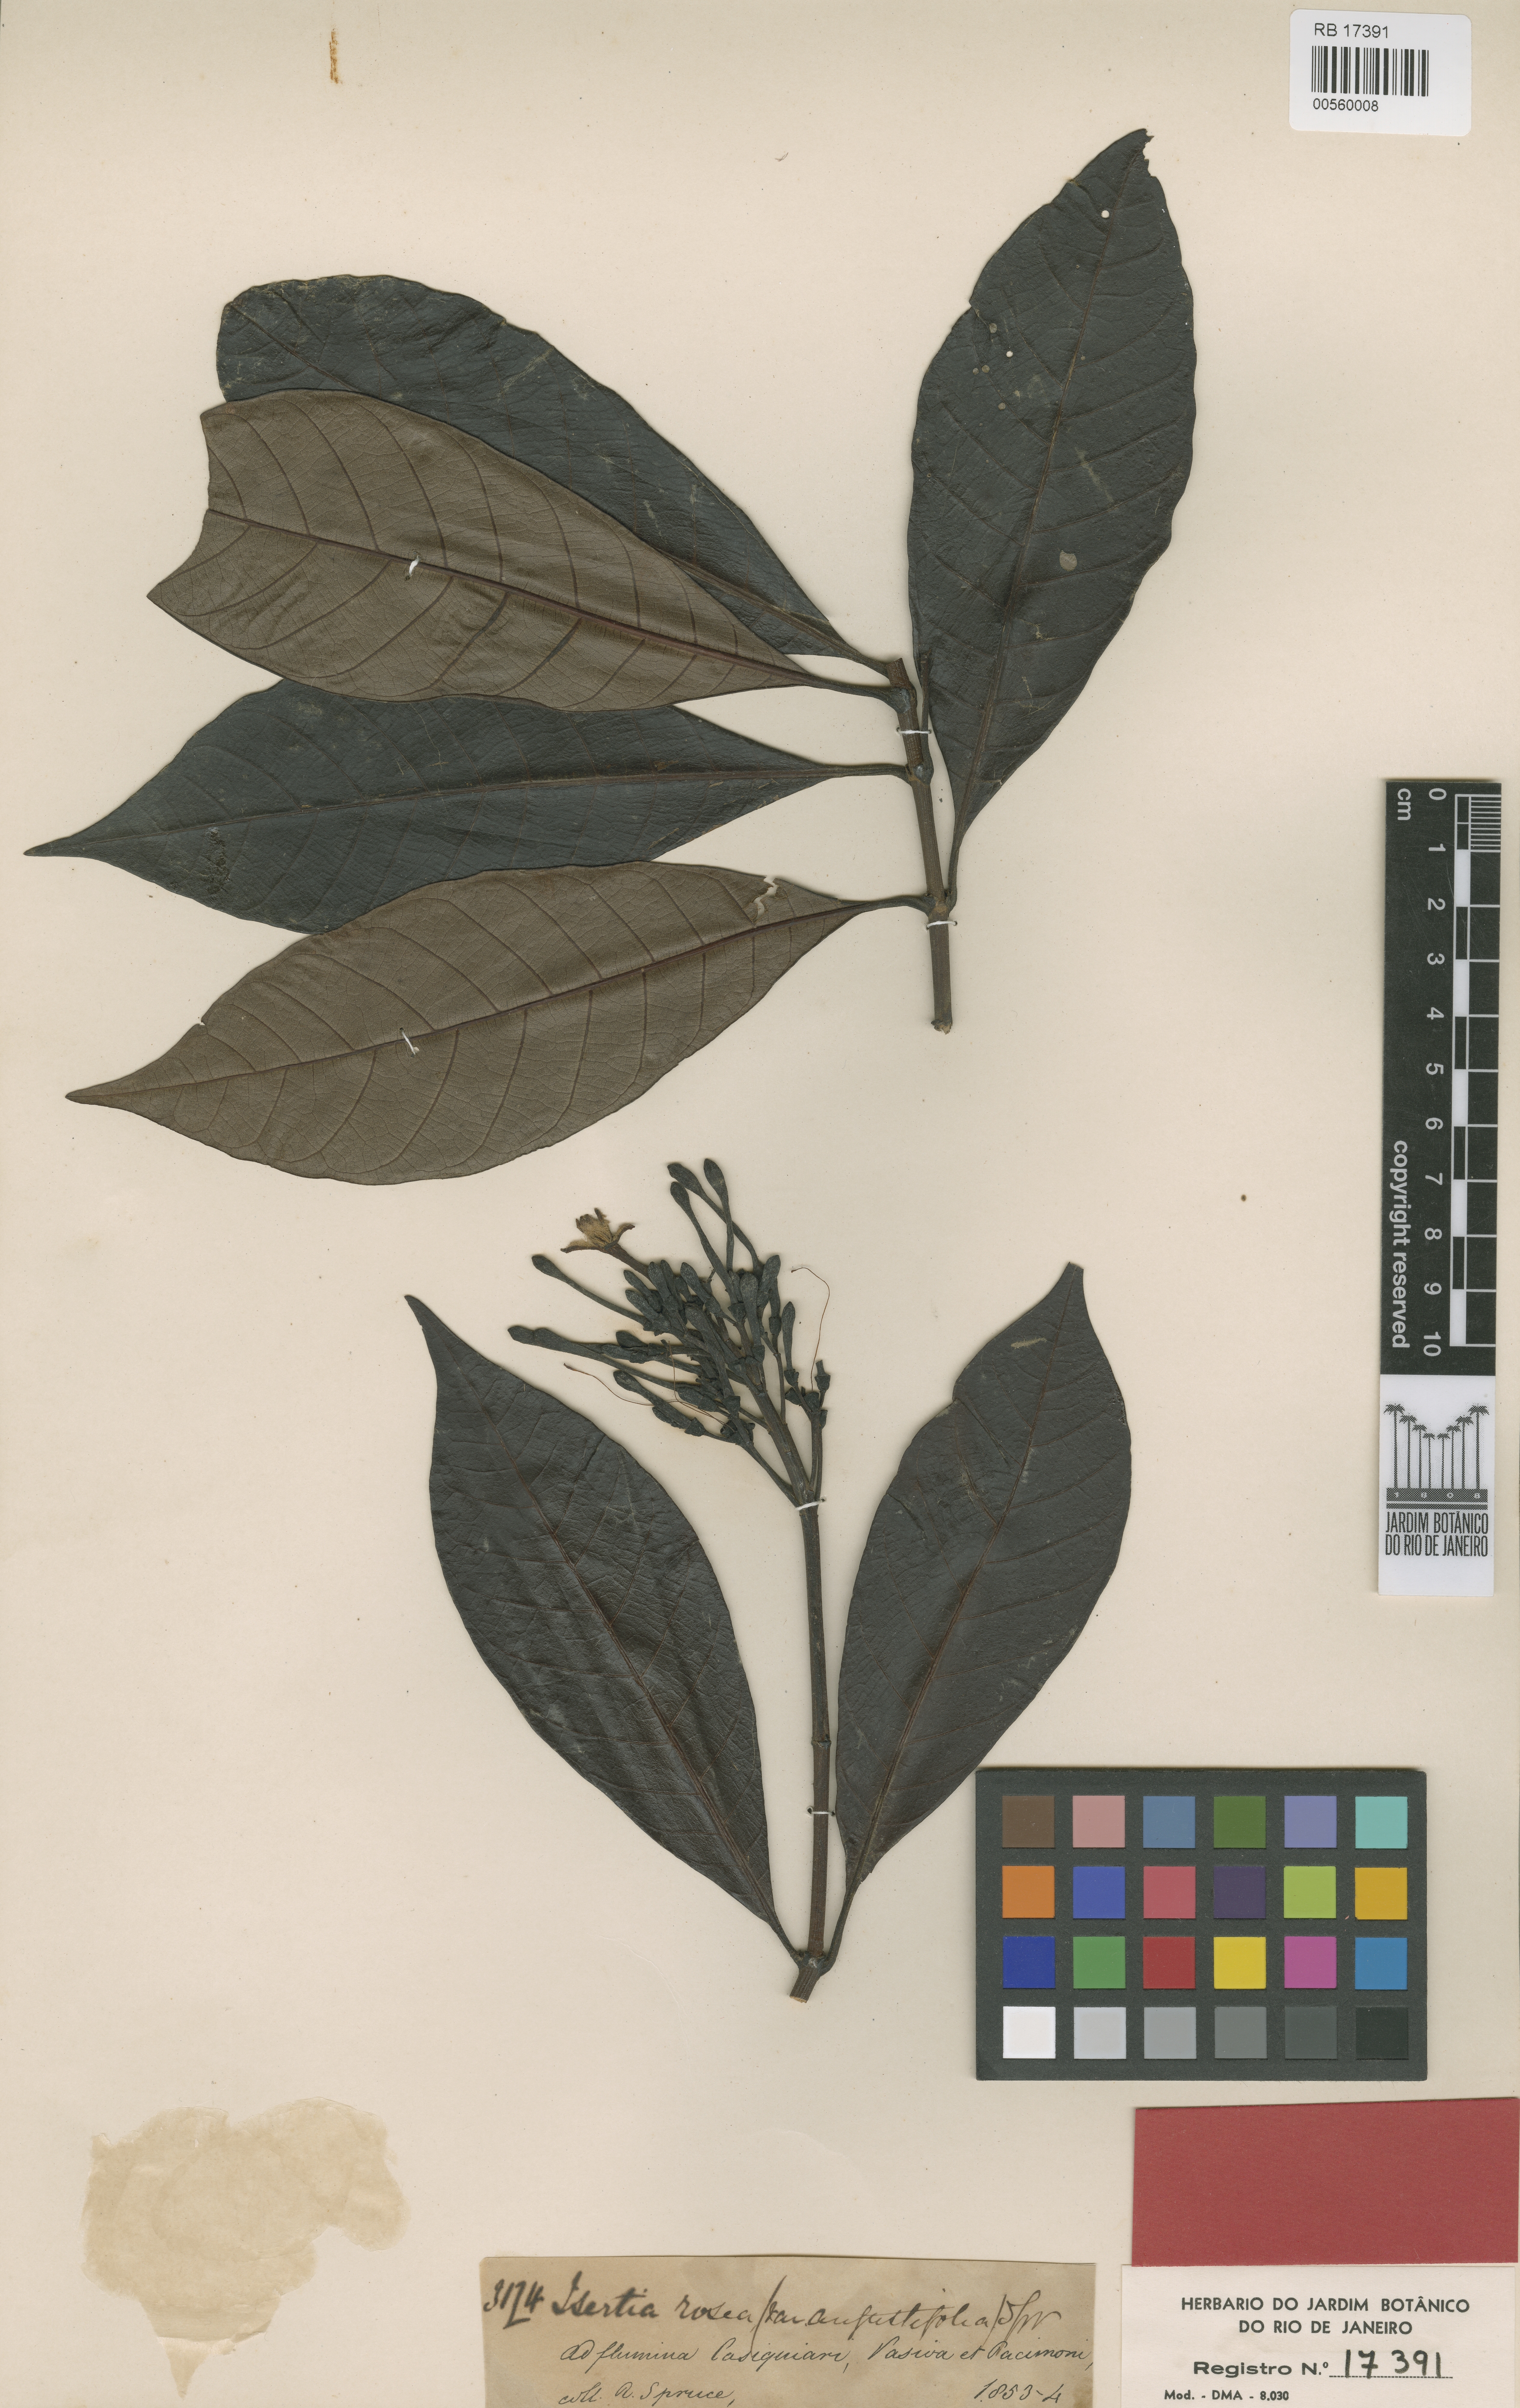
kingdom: Plantae
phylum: Tracheophyta
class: Magnoliopsida
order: Gentianales
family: Rubiaceae
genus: Isertia
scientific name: Isertia rosea
